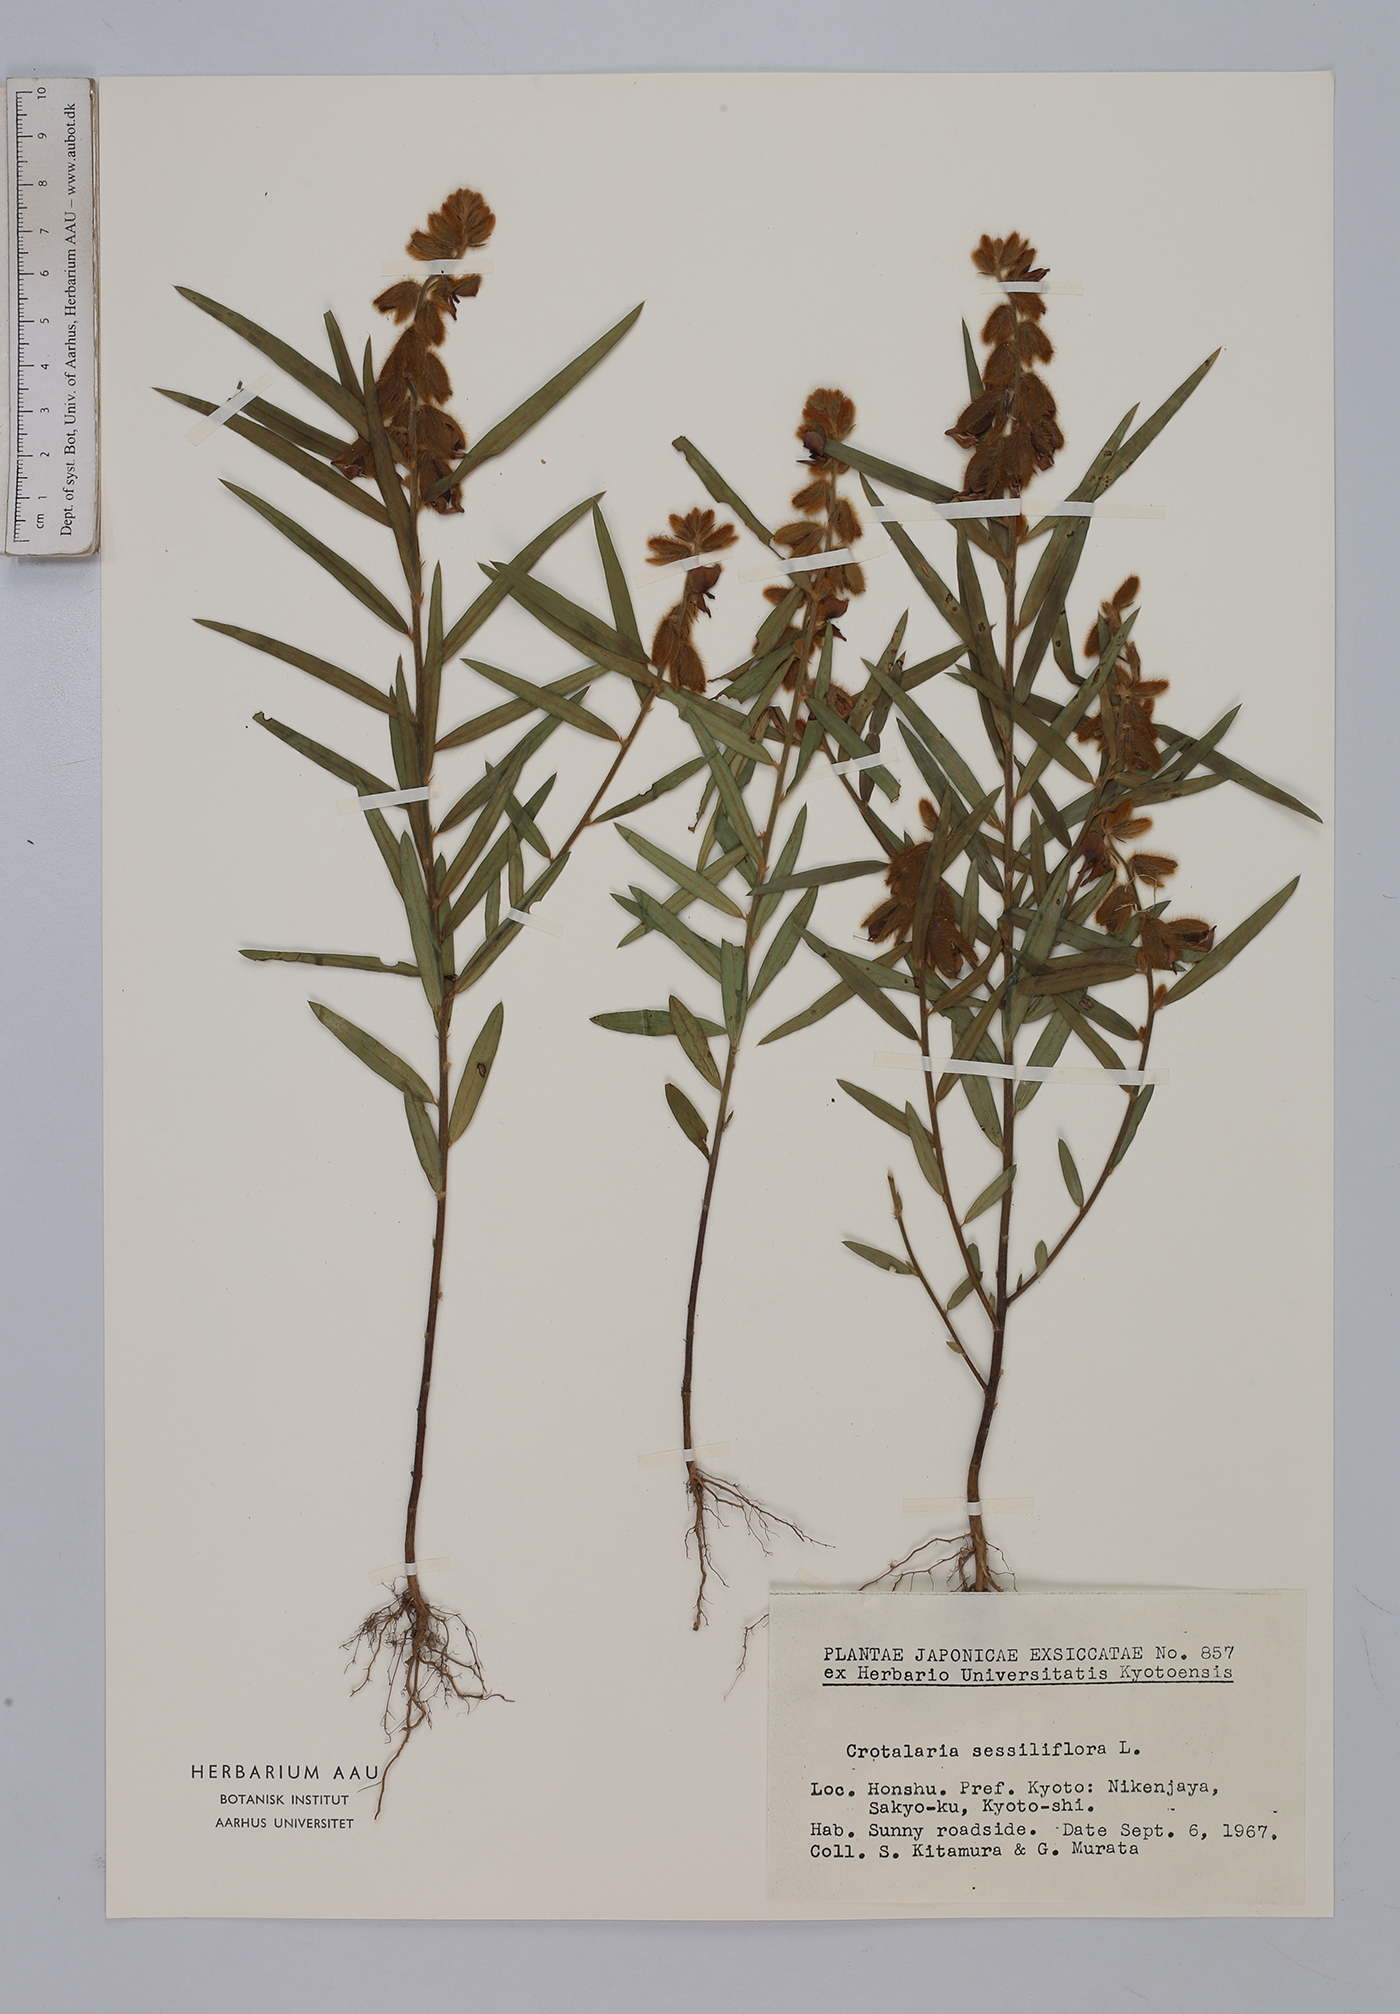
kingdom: Plantae
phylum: Tracheophyta
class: Magnoliopsida
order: Fabales
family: Fabaceae
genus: Crotalaria
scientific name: Crotalaria sessiliflora
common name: Rattlebox
